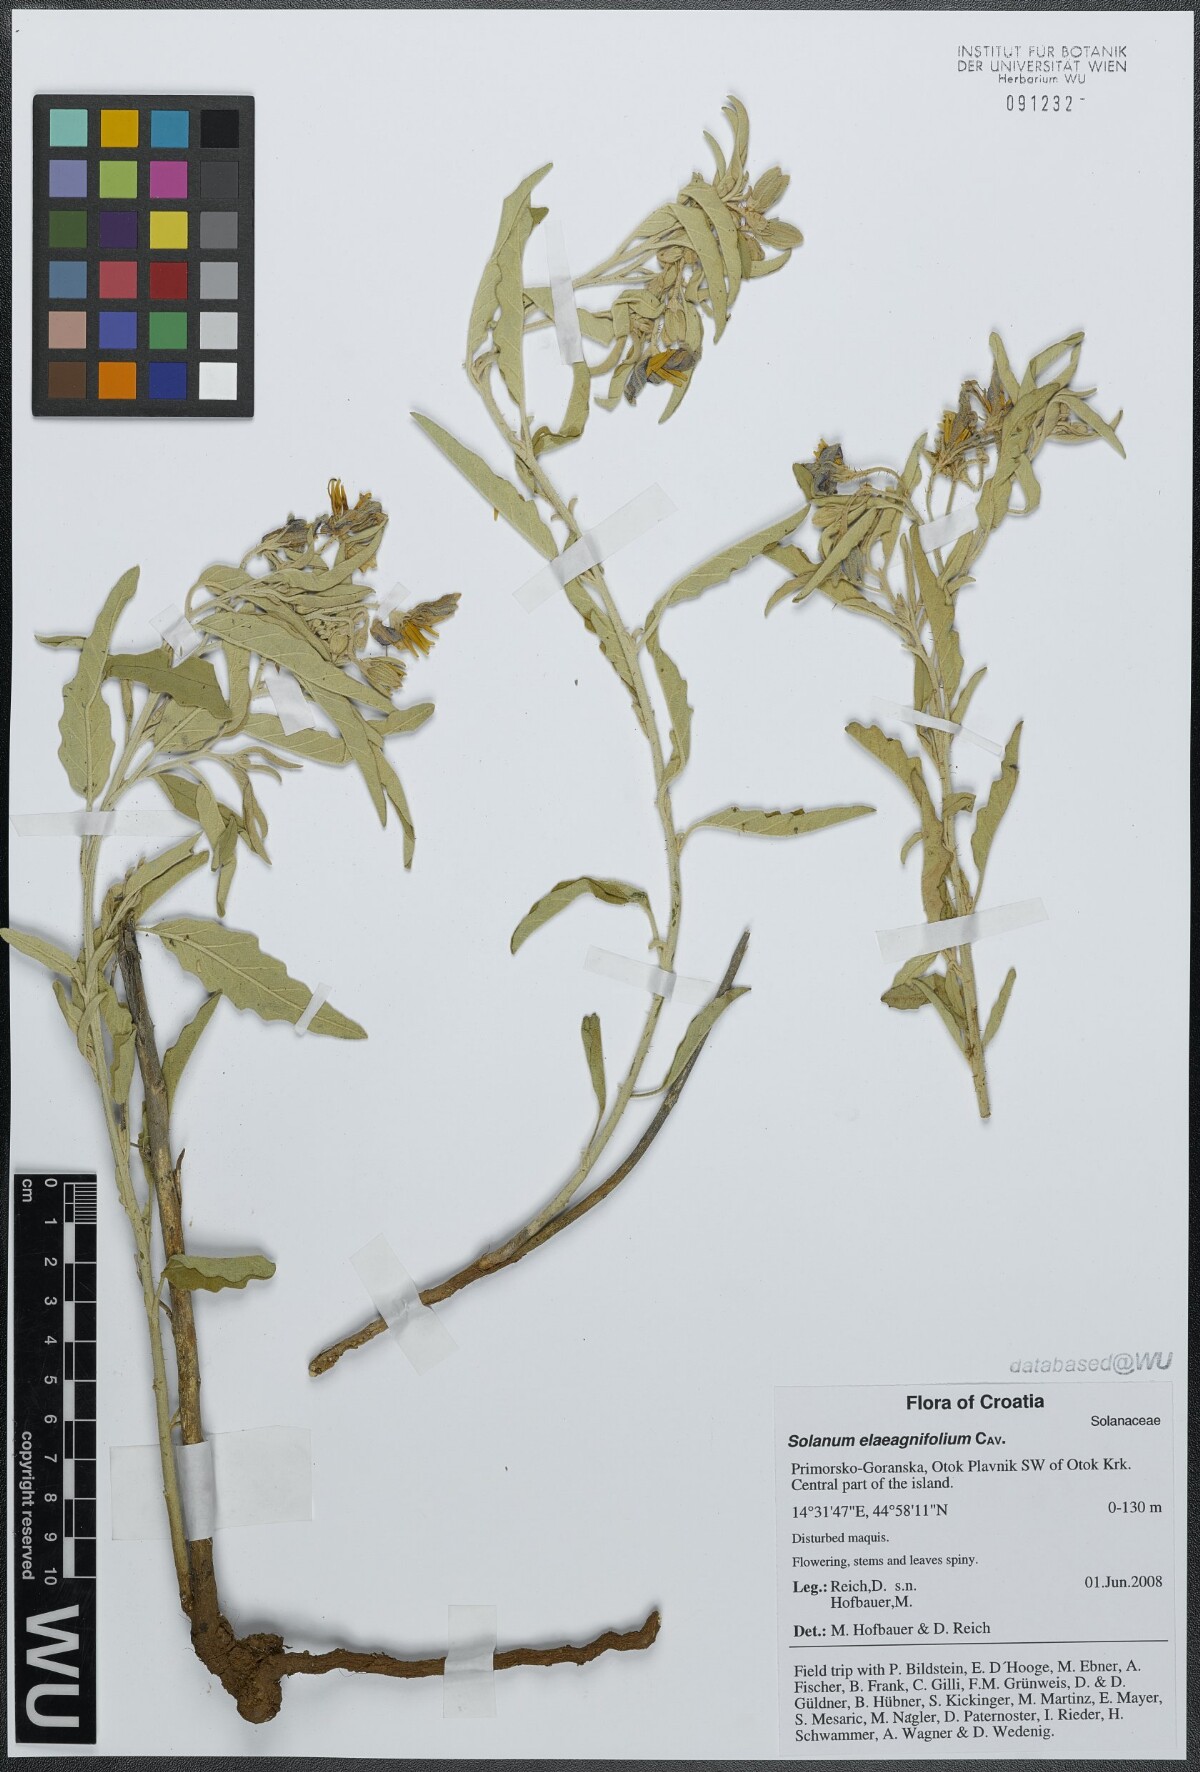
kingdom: Plantae
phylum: Tracheophyta
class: Magnoliopsida
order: Solanales
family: Solanaceae
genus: Solanum
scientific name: Solanum elaeagnifolium
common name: Silverleaf nightshade
